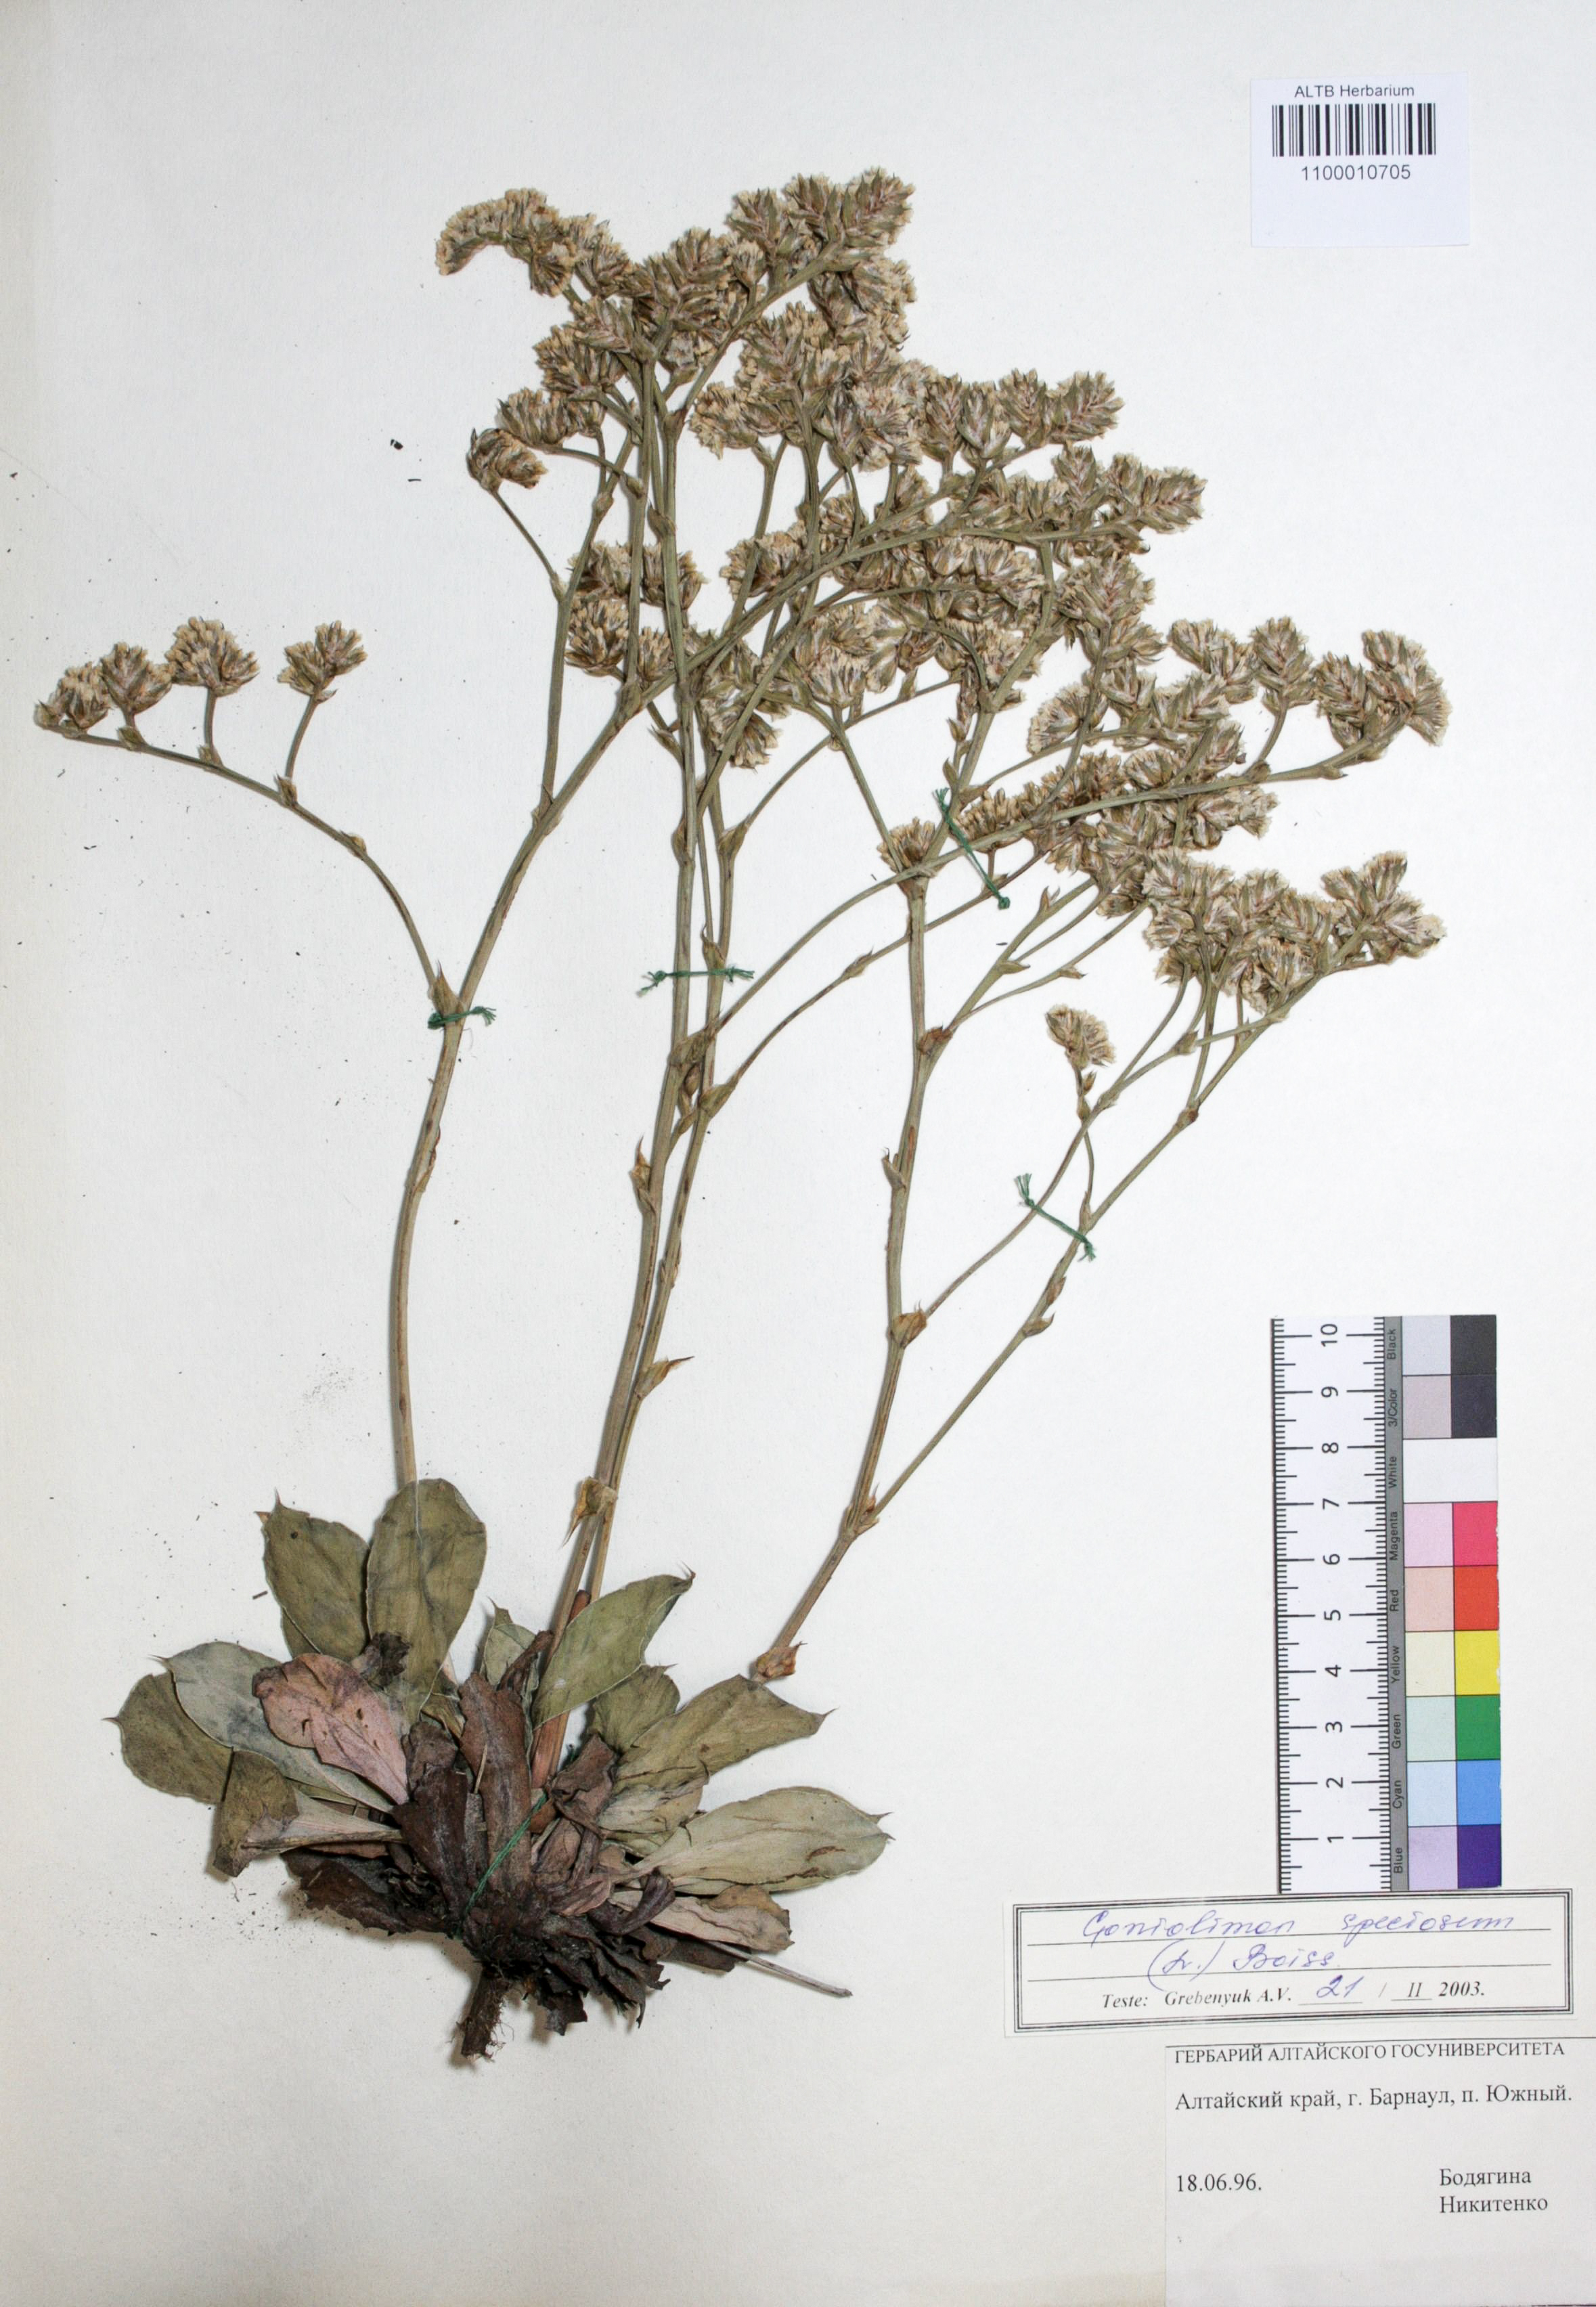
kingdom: Plantae
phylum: Tracheophyta
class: Magnoliopsida
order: Caryophyllales
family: Plumbaginaceae
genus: Goniolimon
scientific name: Goniolimon speciosum
